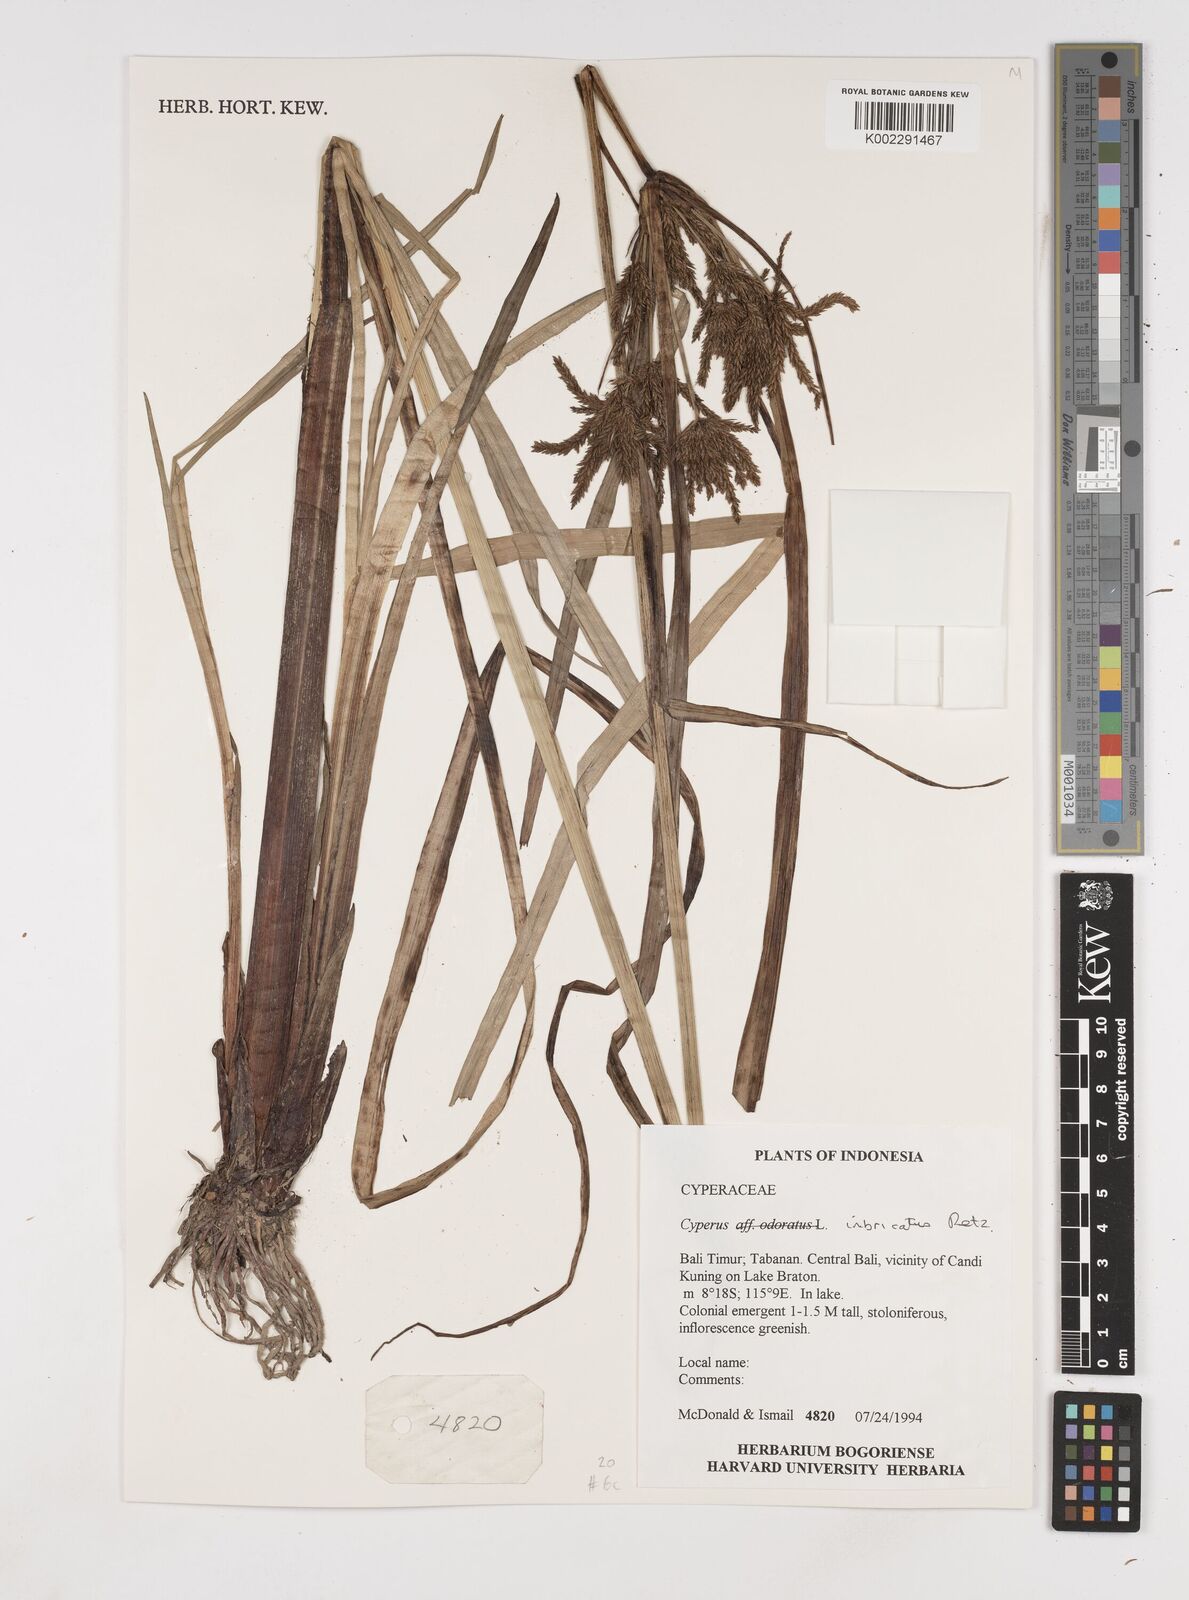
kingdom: Plantae
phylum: Tracheophyta
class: Liliopsida
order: Poales
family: Cyperaceae
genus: Cyperus
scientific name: Cyperus imbricatus
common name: Shingle flatsedge
